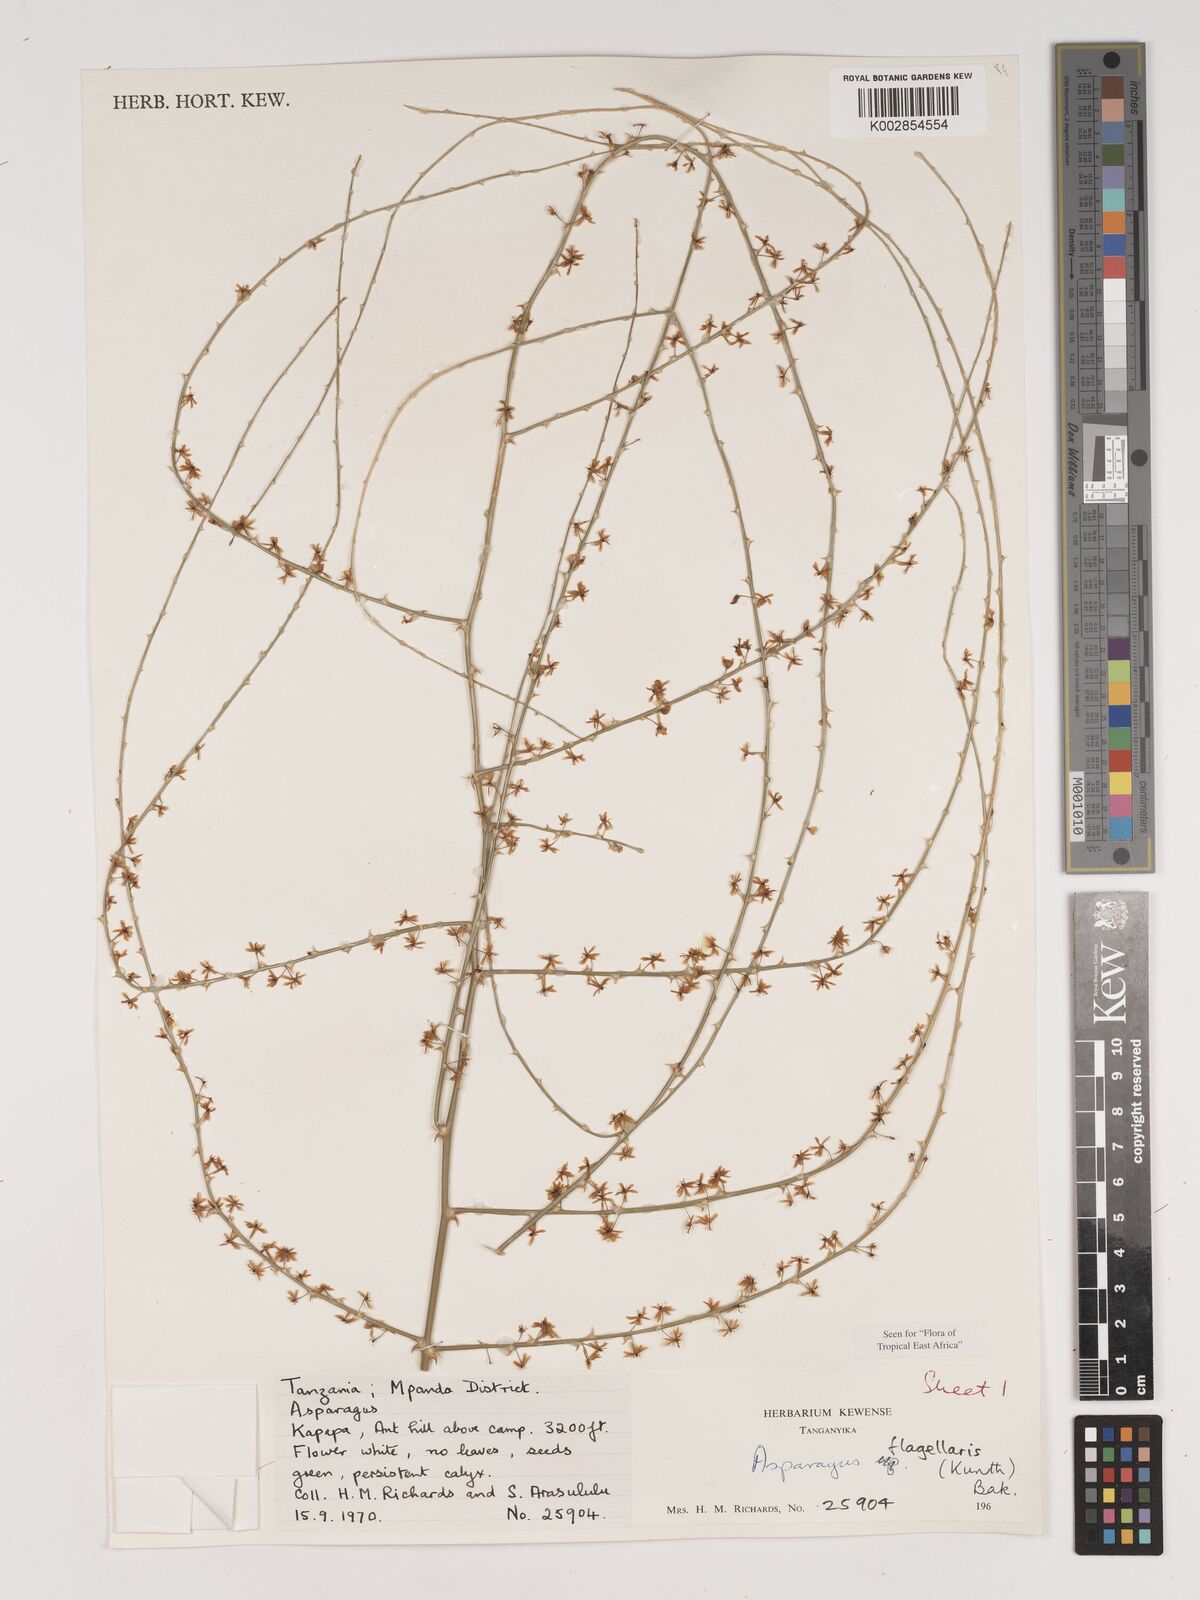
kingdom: Plantae
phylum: Tracheophyta
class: Liliopsida
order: Asparagales
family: Asparagaceae
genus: Asparagus
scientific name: Asparagus flagellaris
